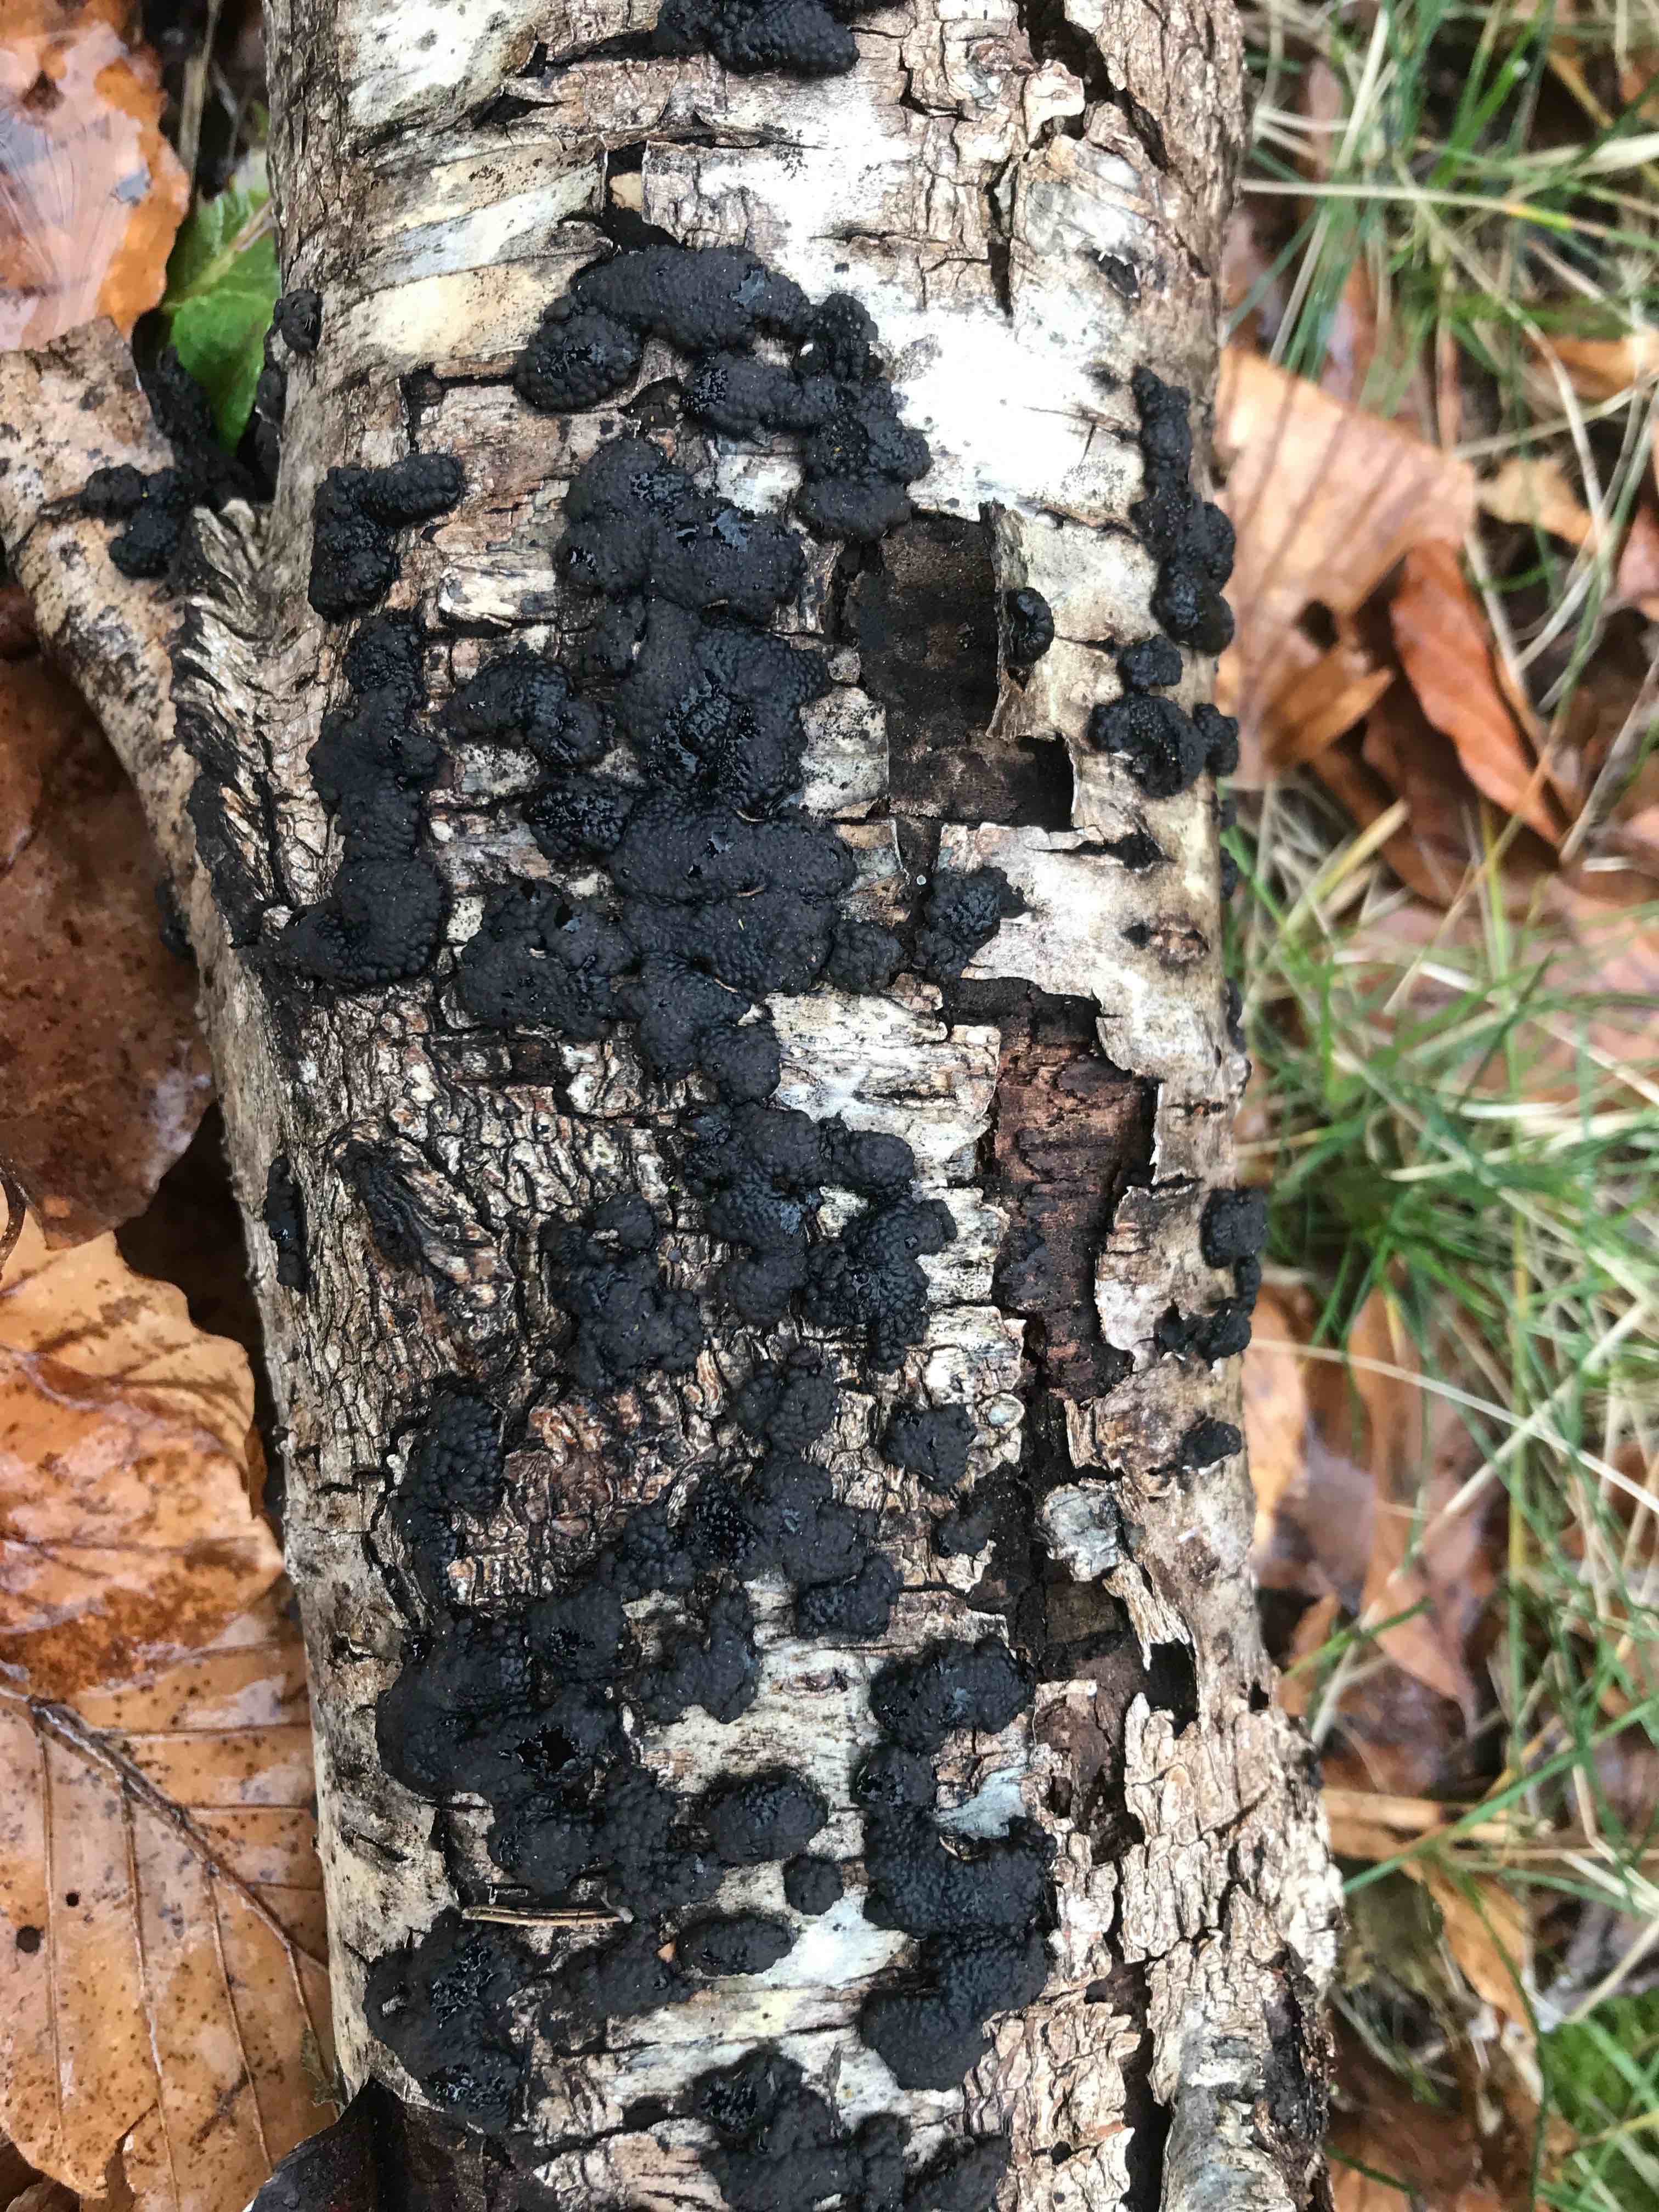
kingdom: Fungi
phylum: Ascomycota
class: Sordariomycetes
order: Xylariales
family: Hypoxylaceae
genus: Jackrogersella
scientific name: Jackrogersella multiformis
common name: foranderlig kulbær
